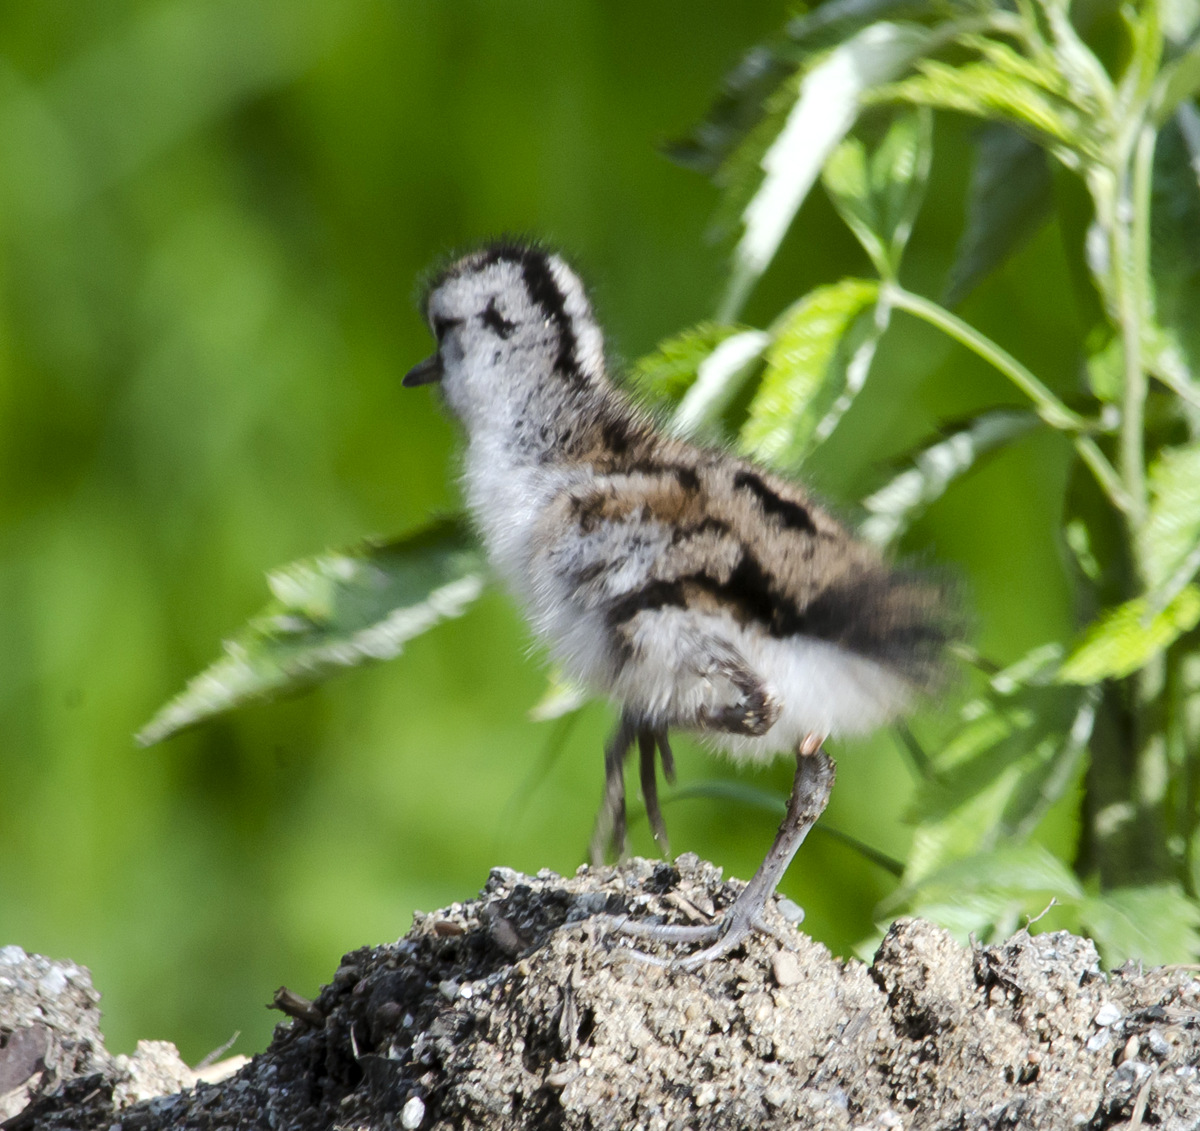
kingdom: Animalia
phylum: Chordata
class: Aves
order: Charadriiformes
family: Scolopacidae
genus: Tringa
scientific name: Tringa ochropus
